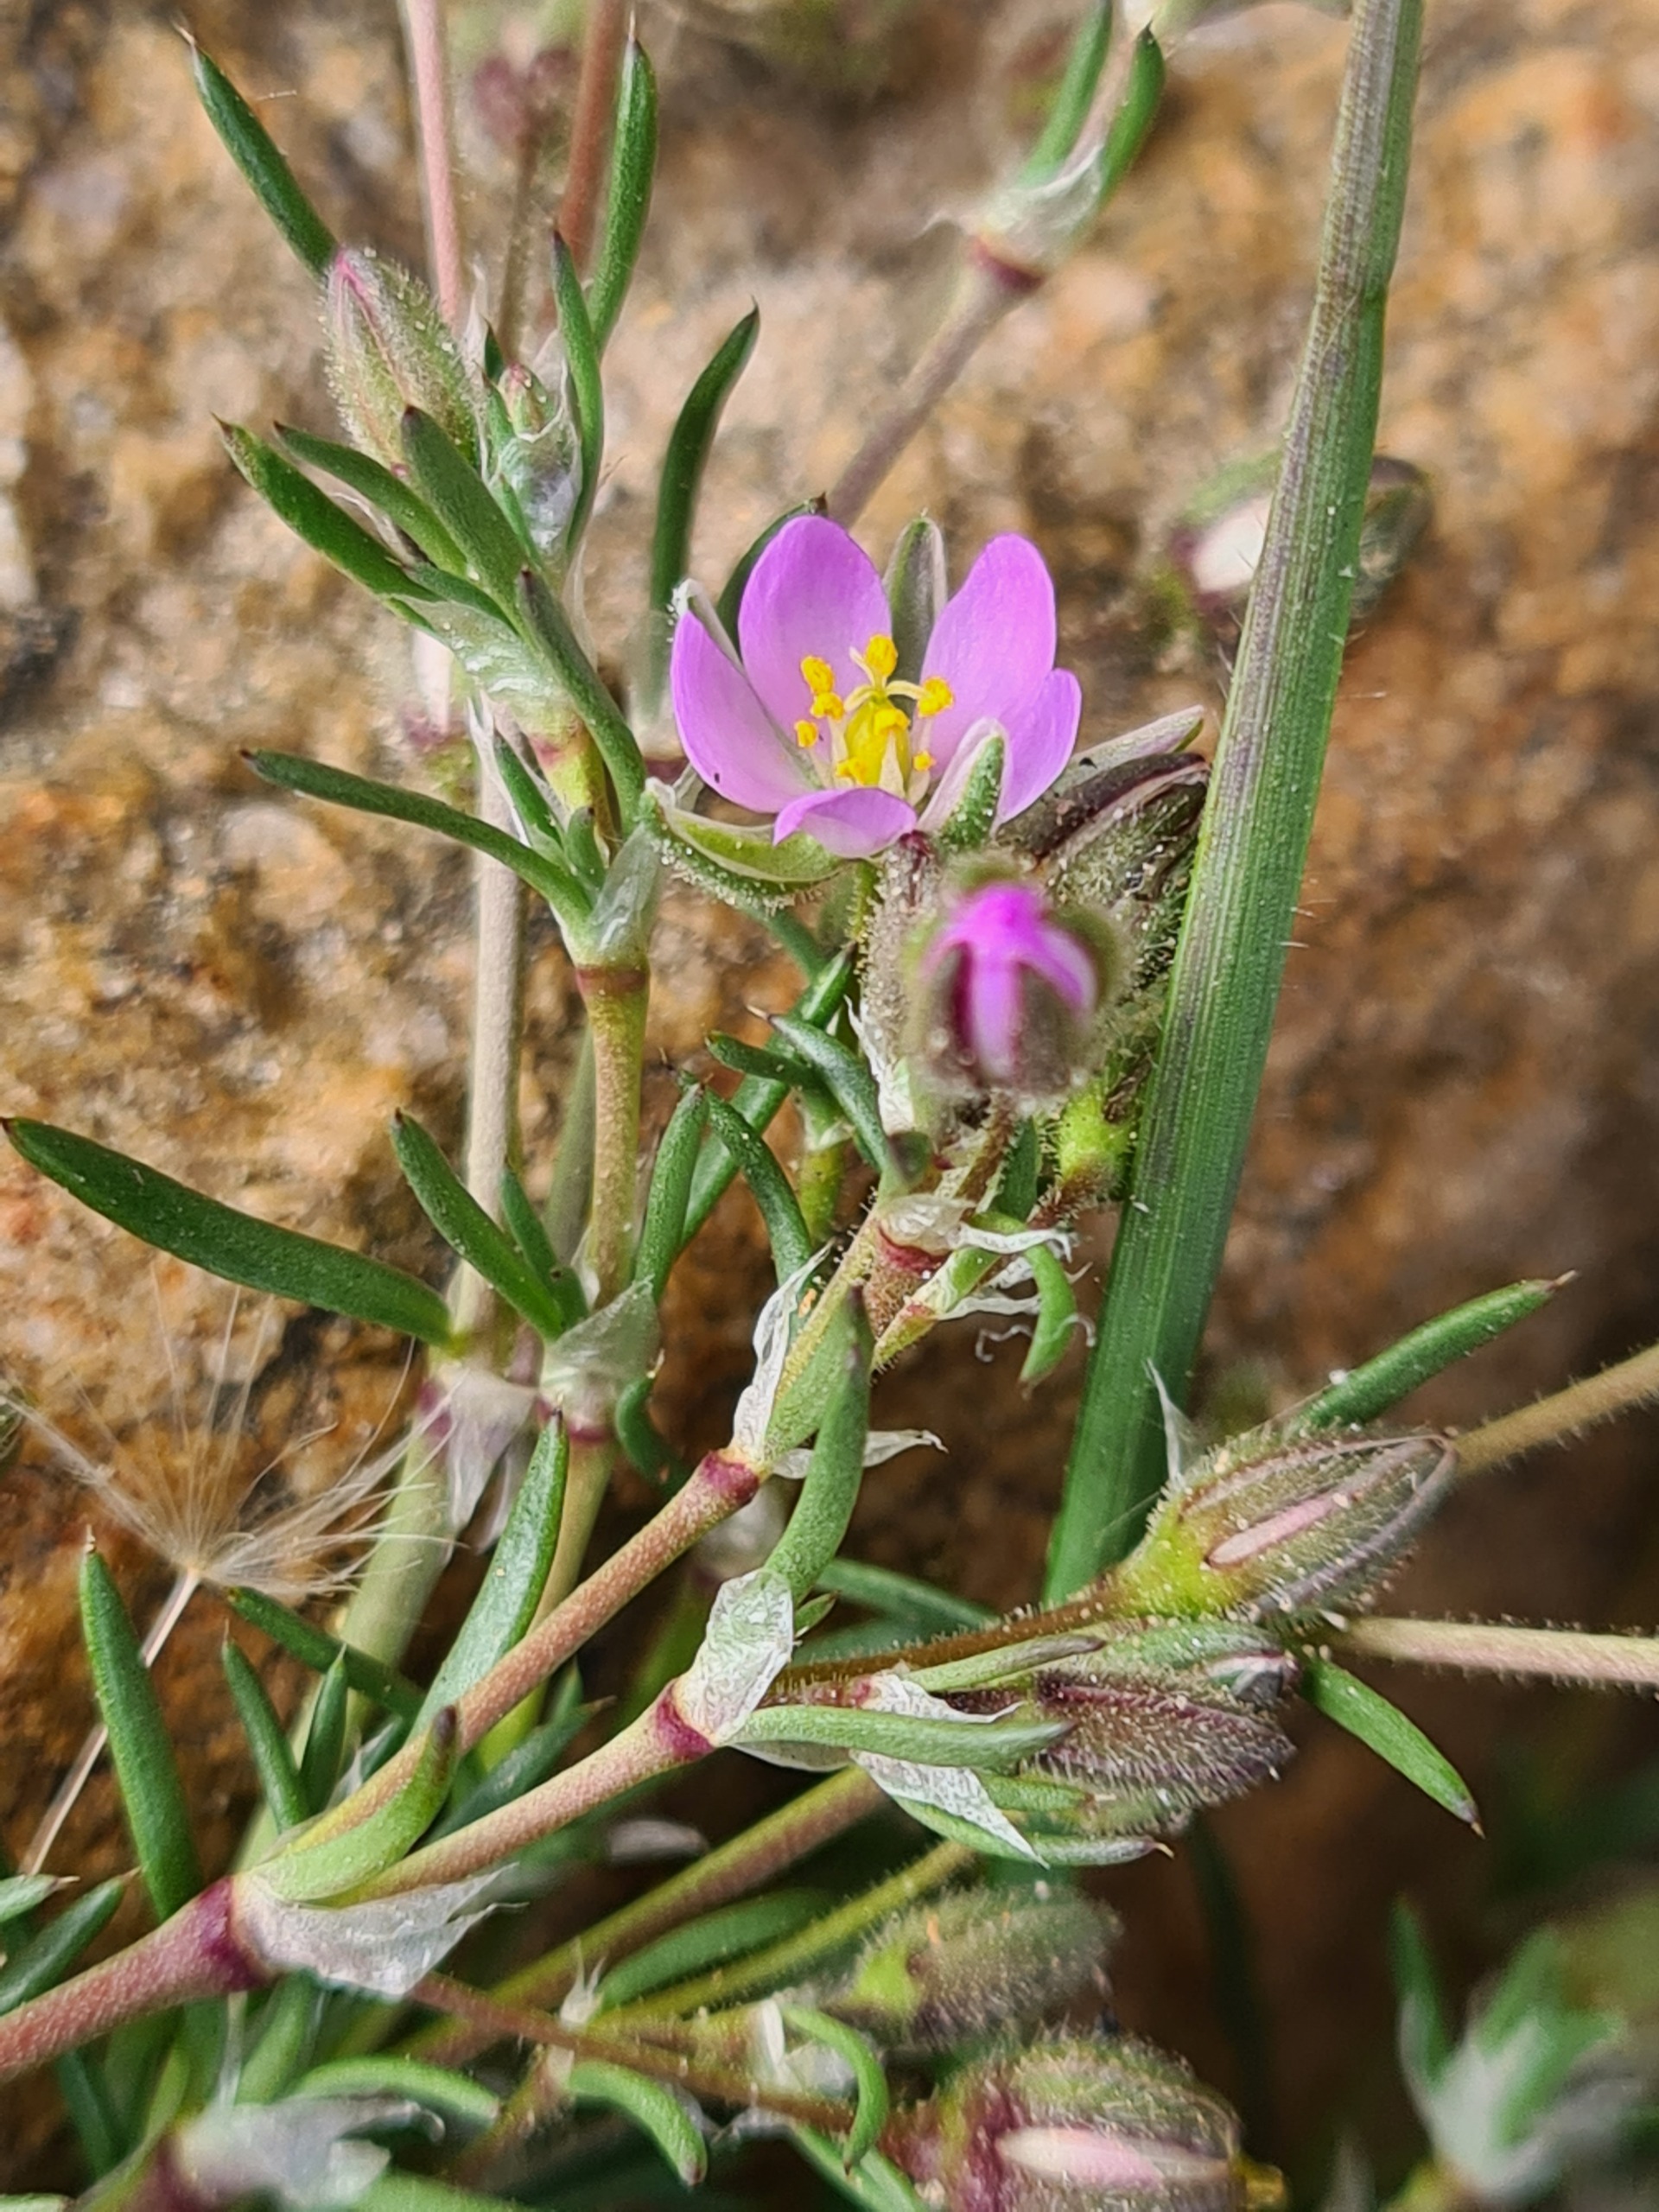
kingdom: Plantae
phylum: Tracheophyta
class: Magnoliopsida
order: Caryophyllales
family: Caryophyllaceae
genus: Spergularia
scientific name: Spergularia rubra
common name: Mark-hindeknæ
